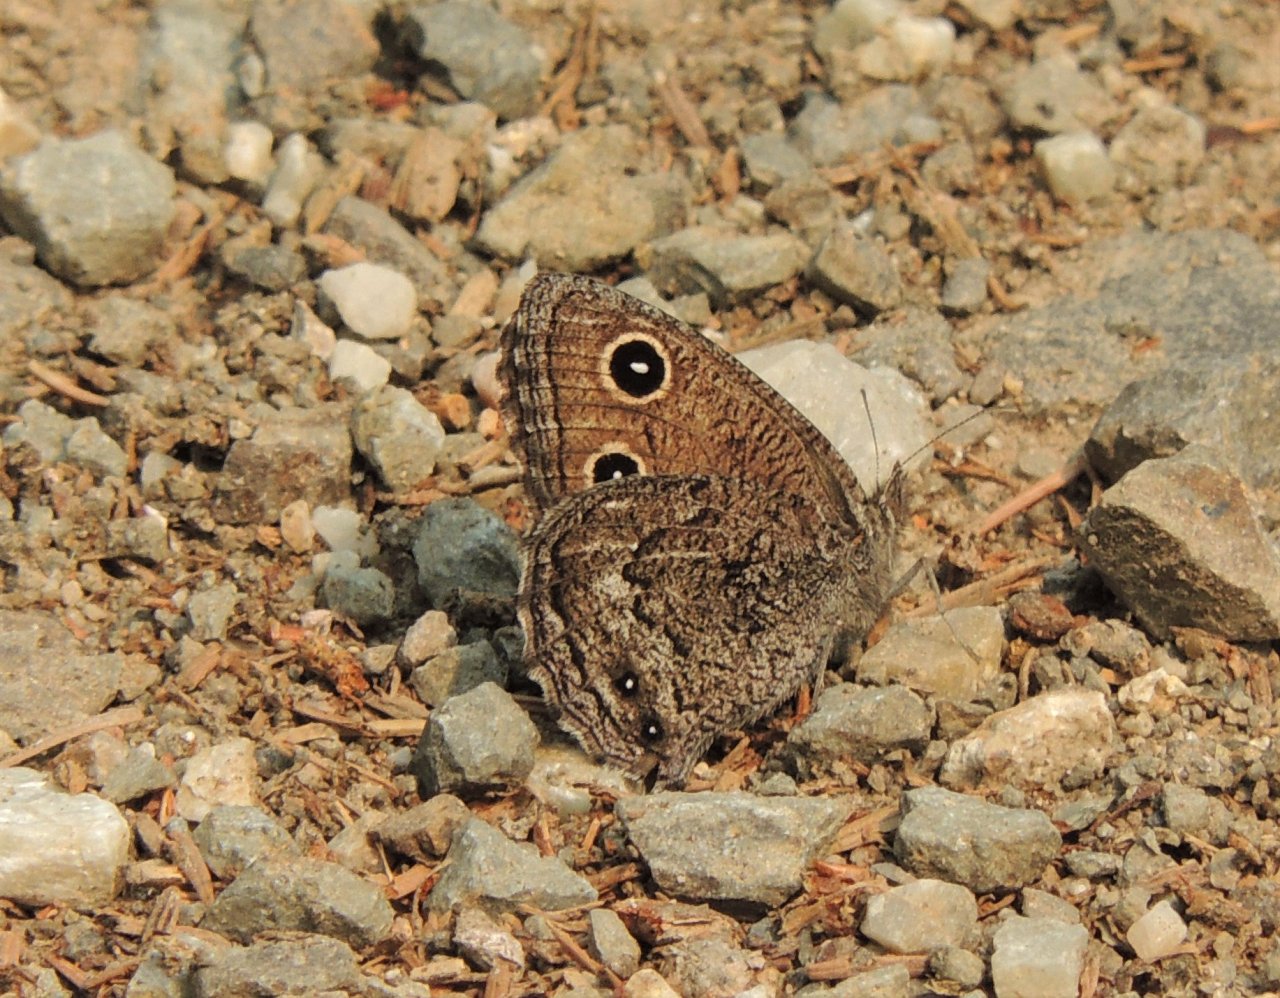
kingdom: Animalia
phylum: Arthropoda
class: Insecta
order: Lepidoptera
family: Nymphalidae
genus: Cercyonis
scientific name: Cercyonis oetus
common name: Small Wood-Nymph
